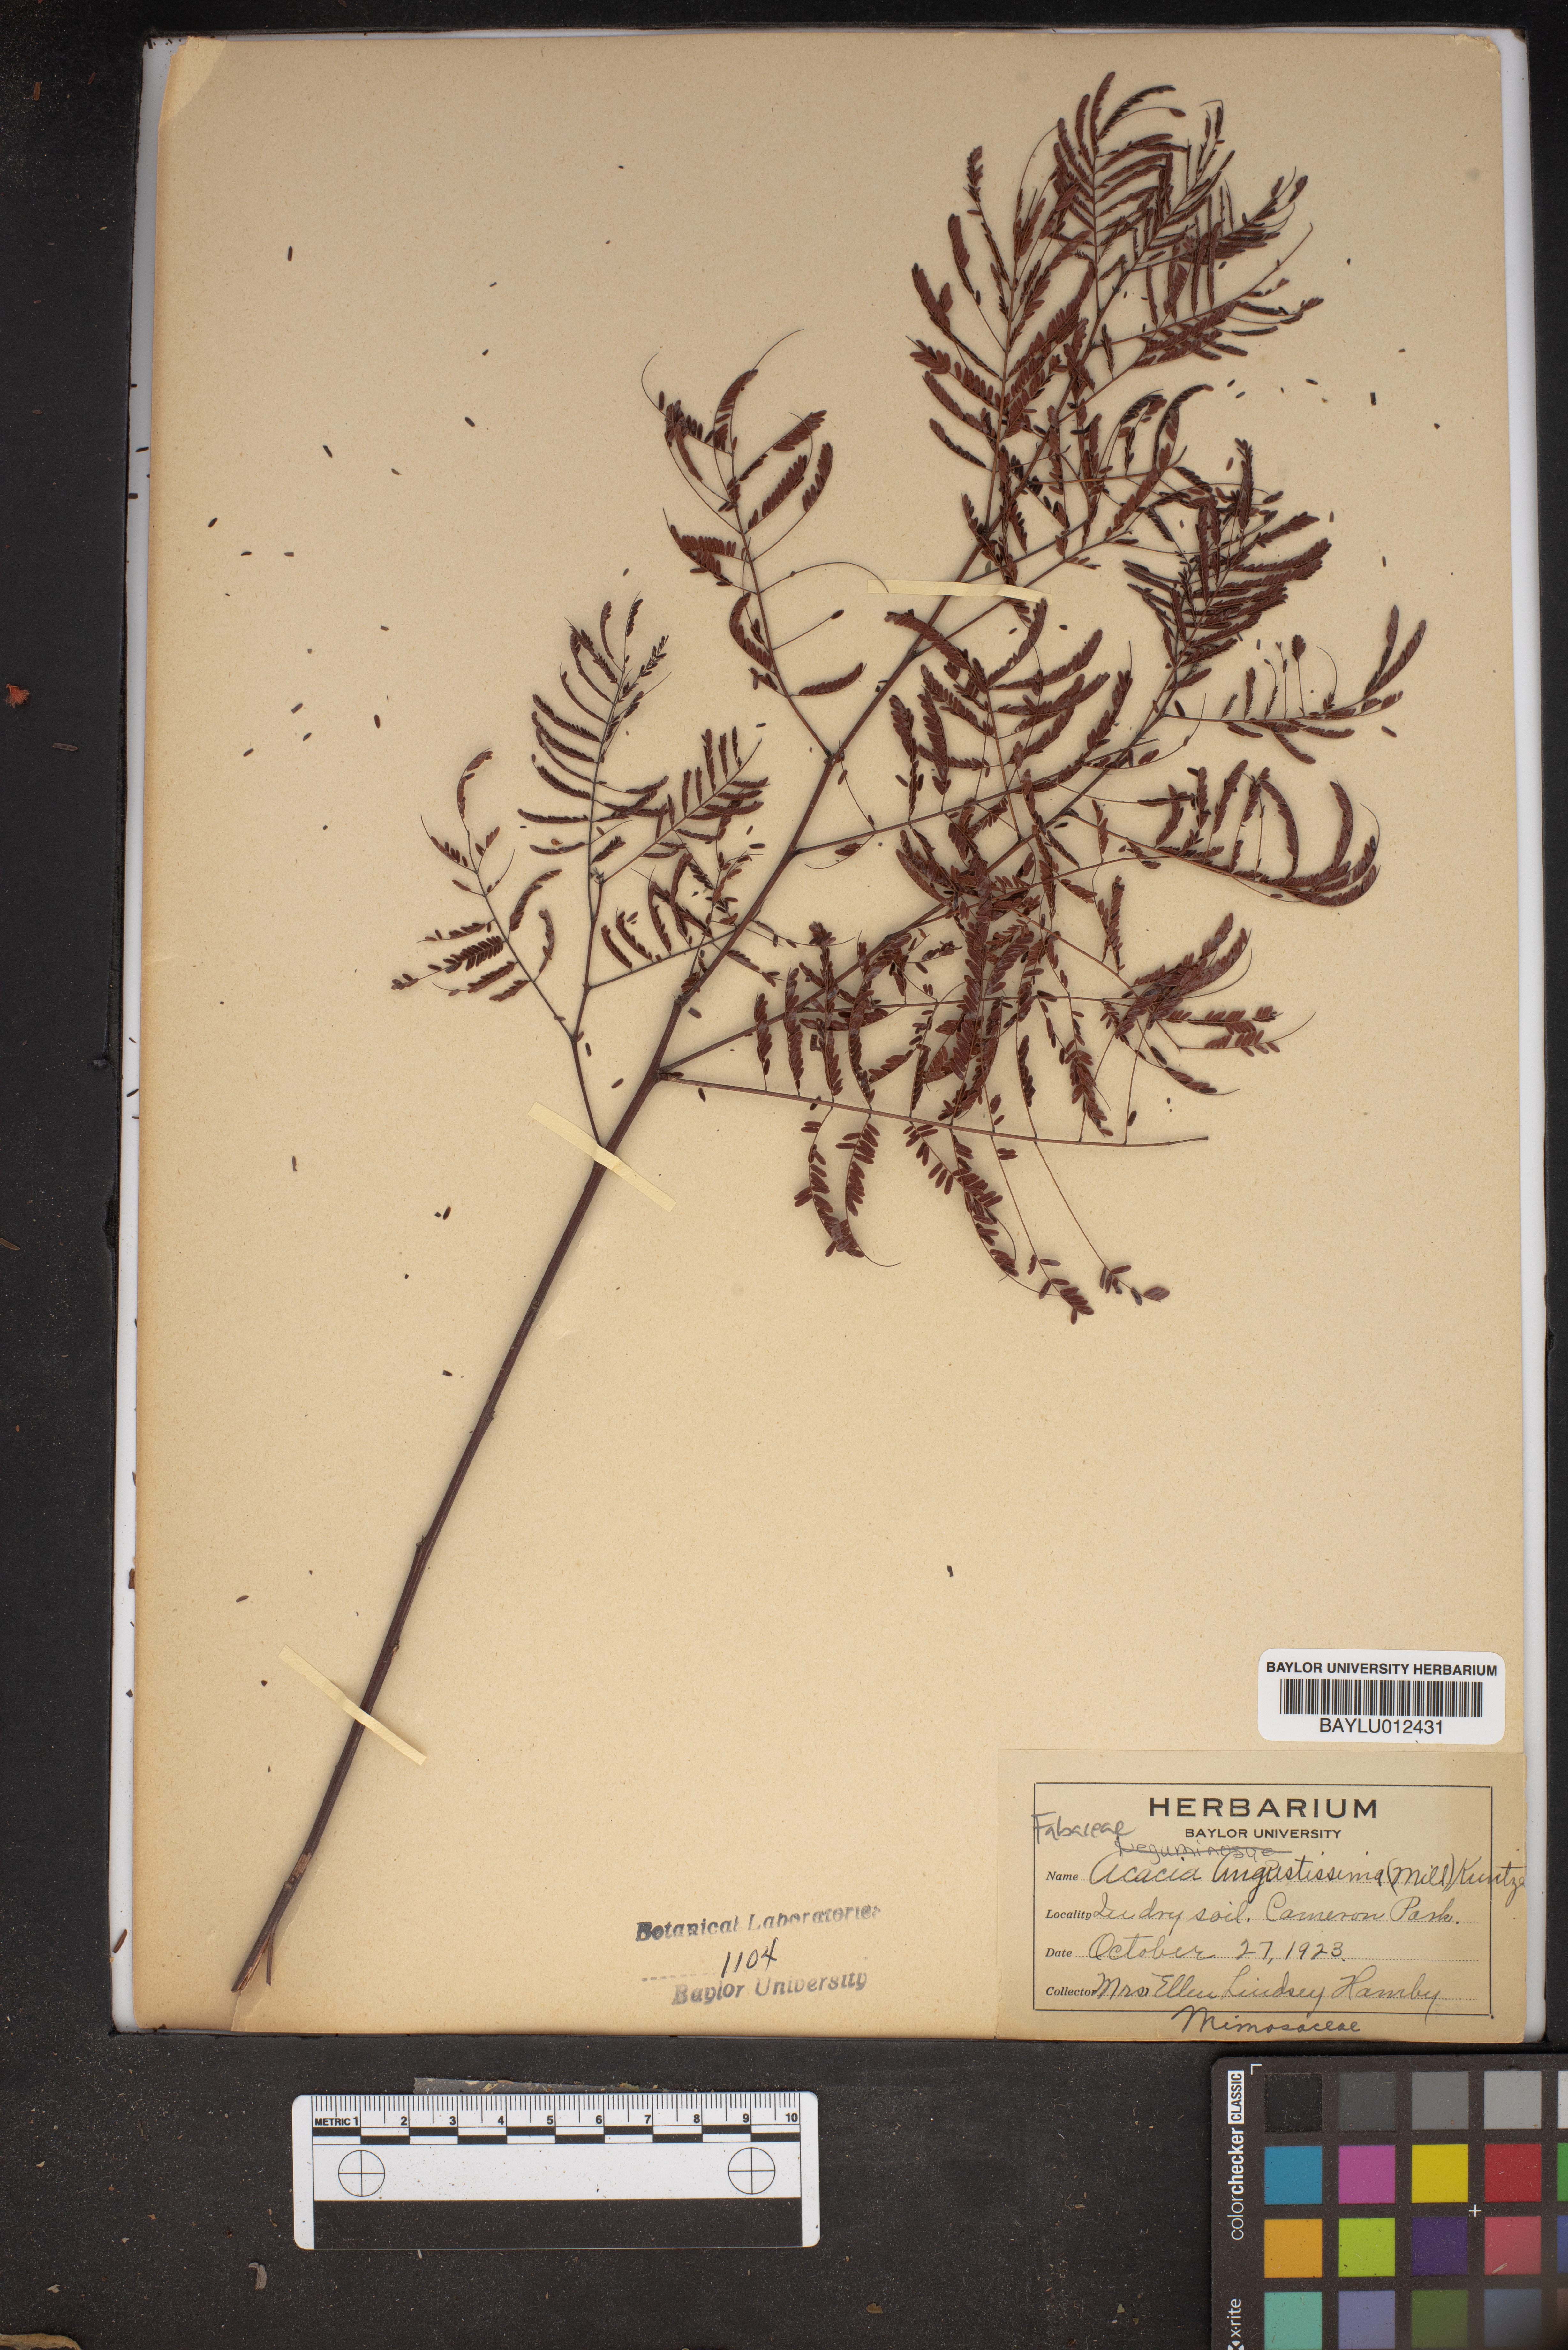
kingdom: Plantae
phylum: Tracheophyta
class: Magnoliopsida
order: Fabales
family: Fabaceae
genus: Acaciella
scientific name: Acaciella angustissima
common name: Prairie acacia
